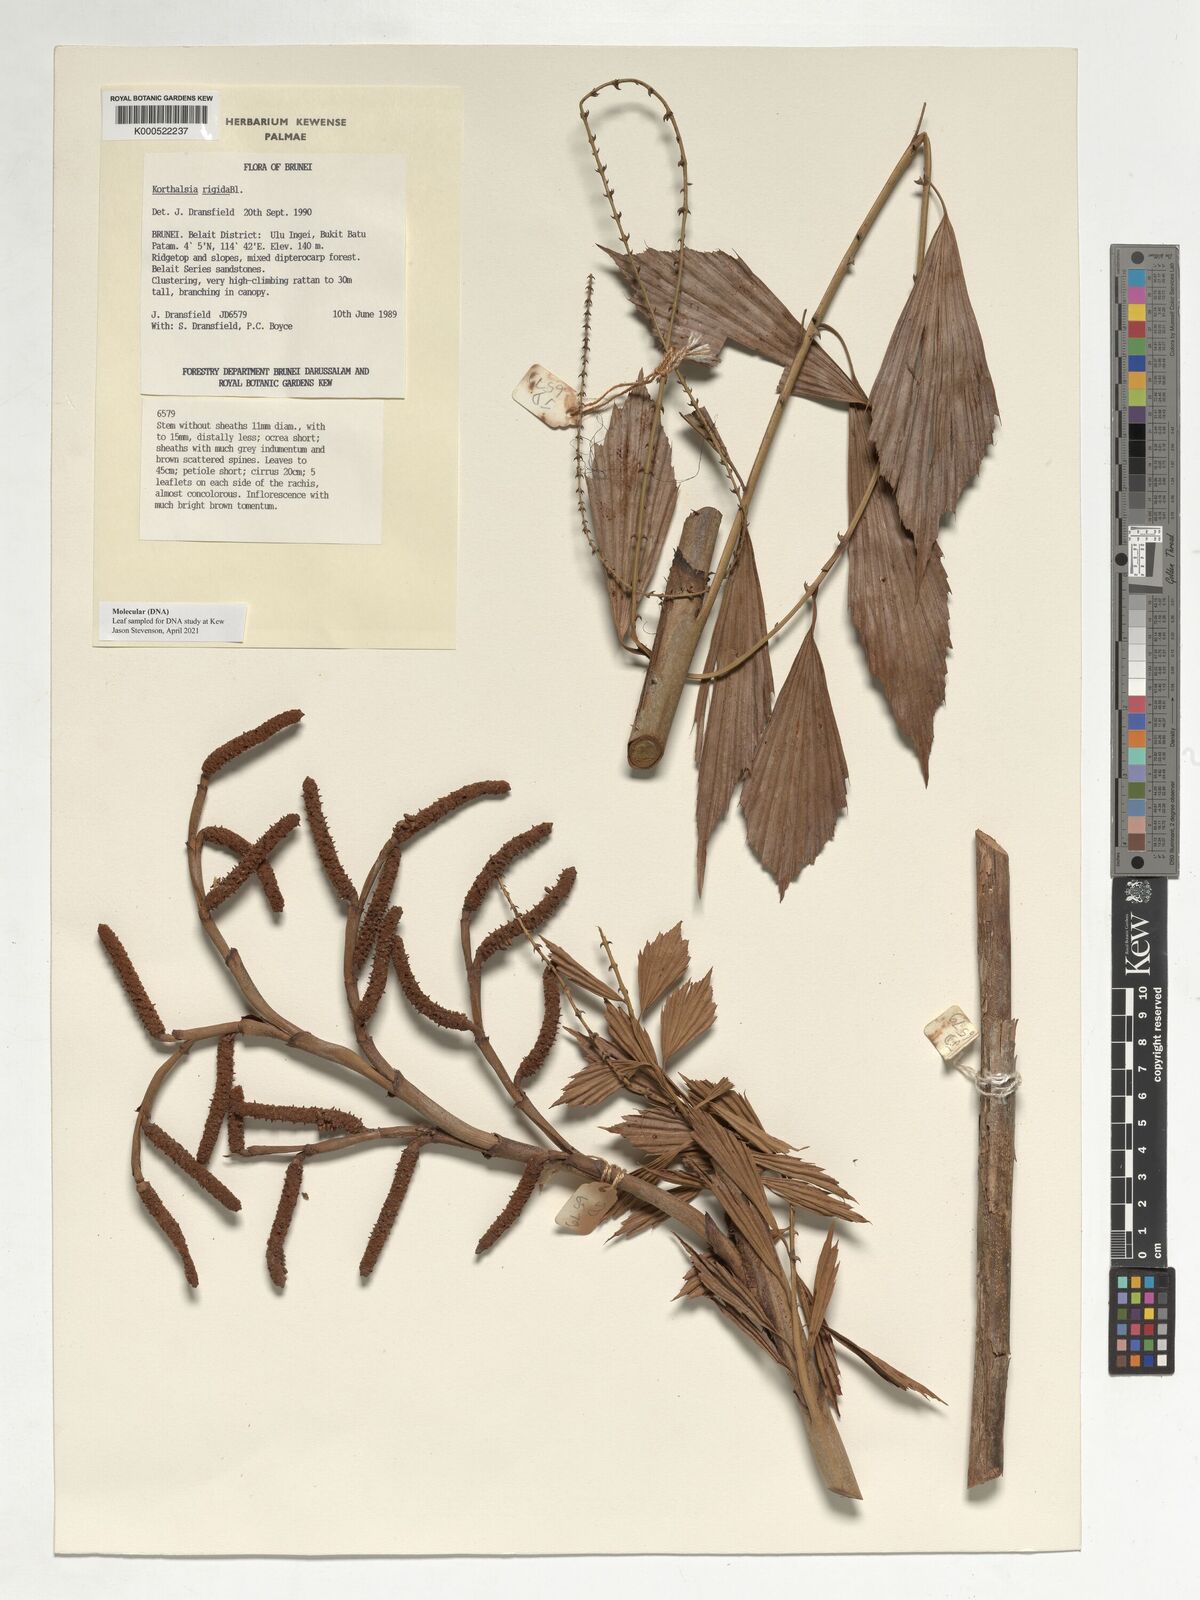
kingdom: Plantae
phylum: Tracheophyta
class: Liliopsida
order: Arecales
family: Arecaceae
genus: Korthalsia
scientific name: Korthalsia rigida
